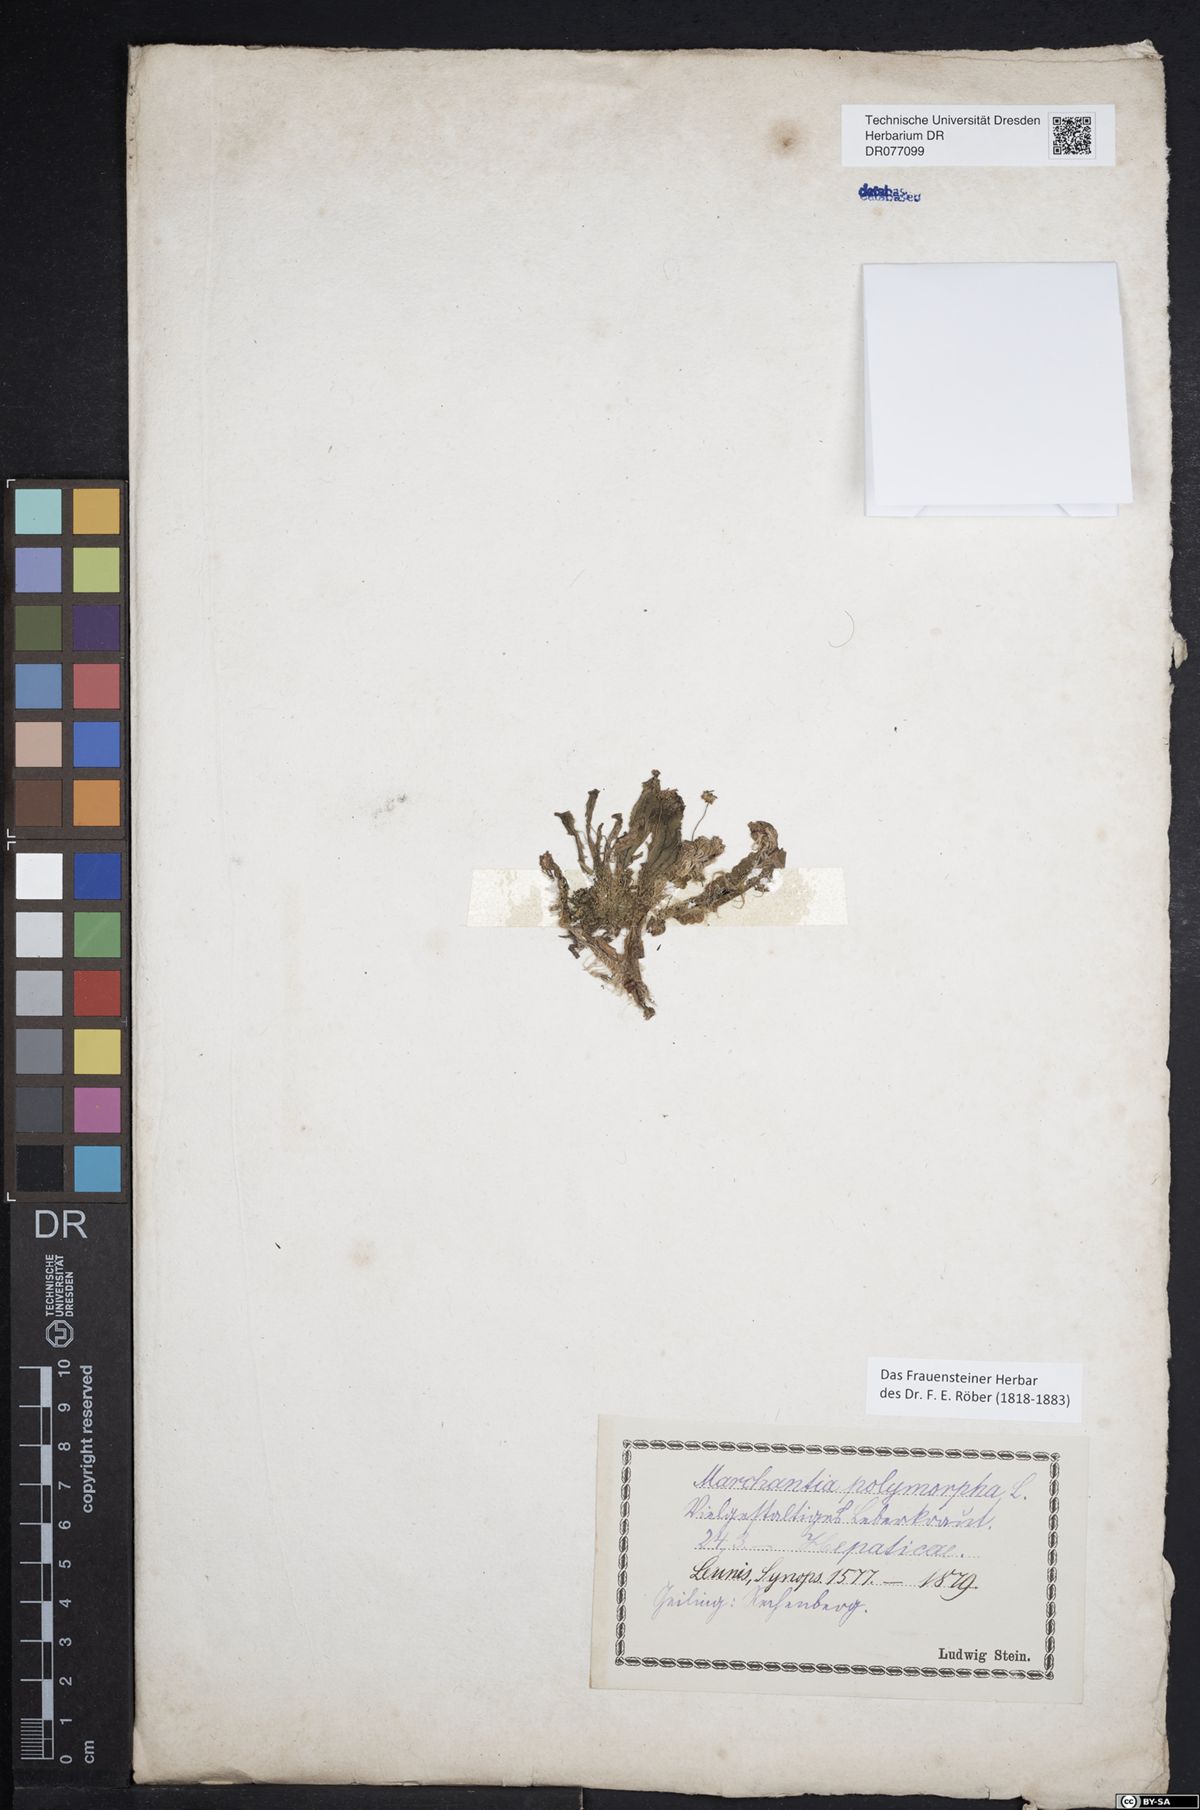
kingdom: Plantae
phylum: Marchantiophyta
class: Marchantiopsida
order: Marchantiales
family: Marchantiaceae
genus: Marchantia
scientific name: Marchantia polymorpha
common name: Common liverwort
